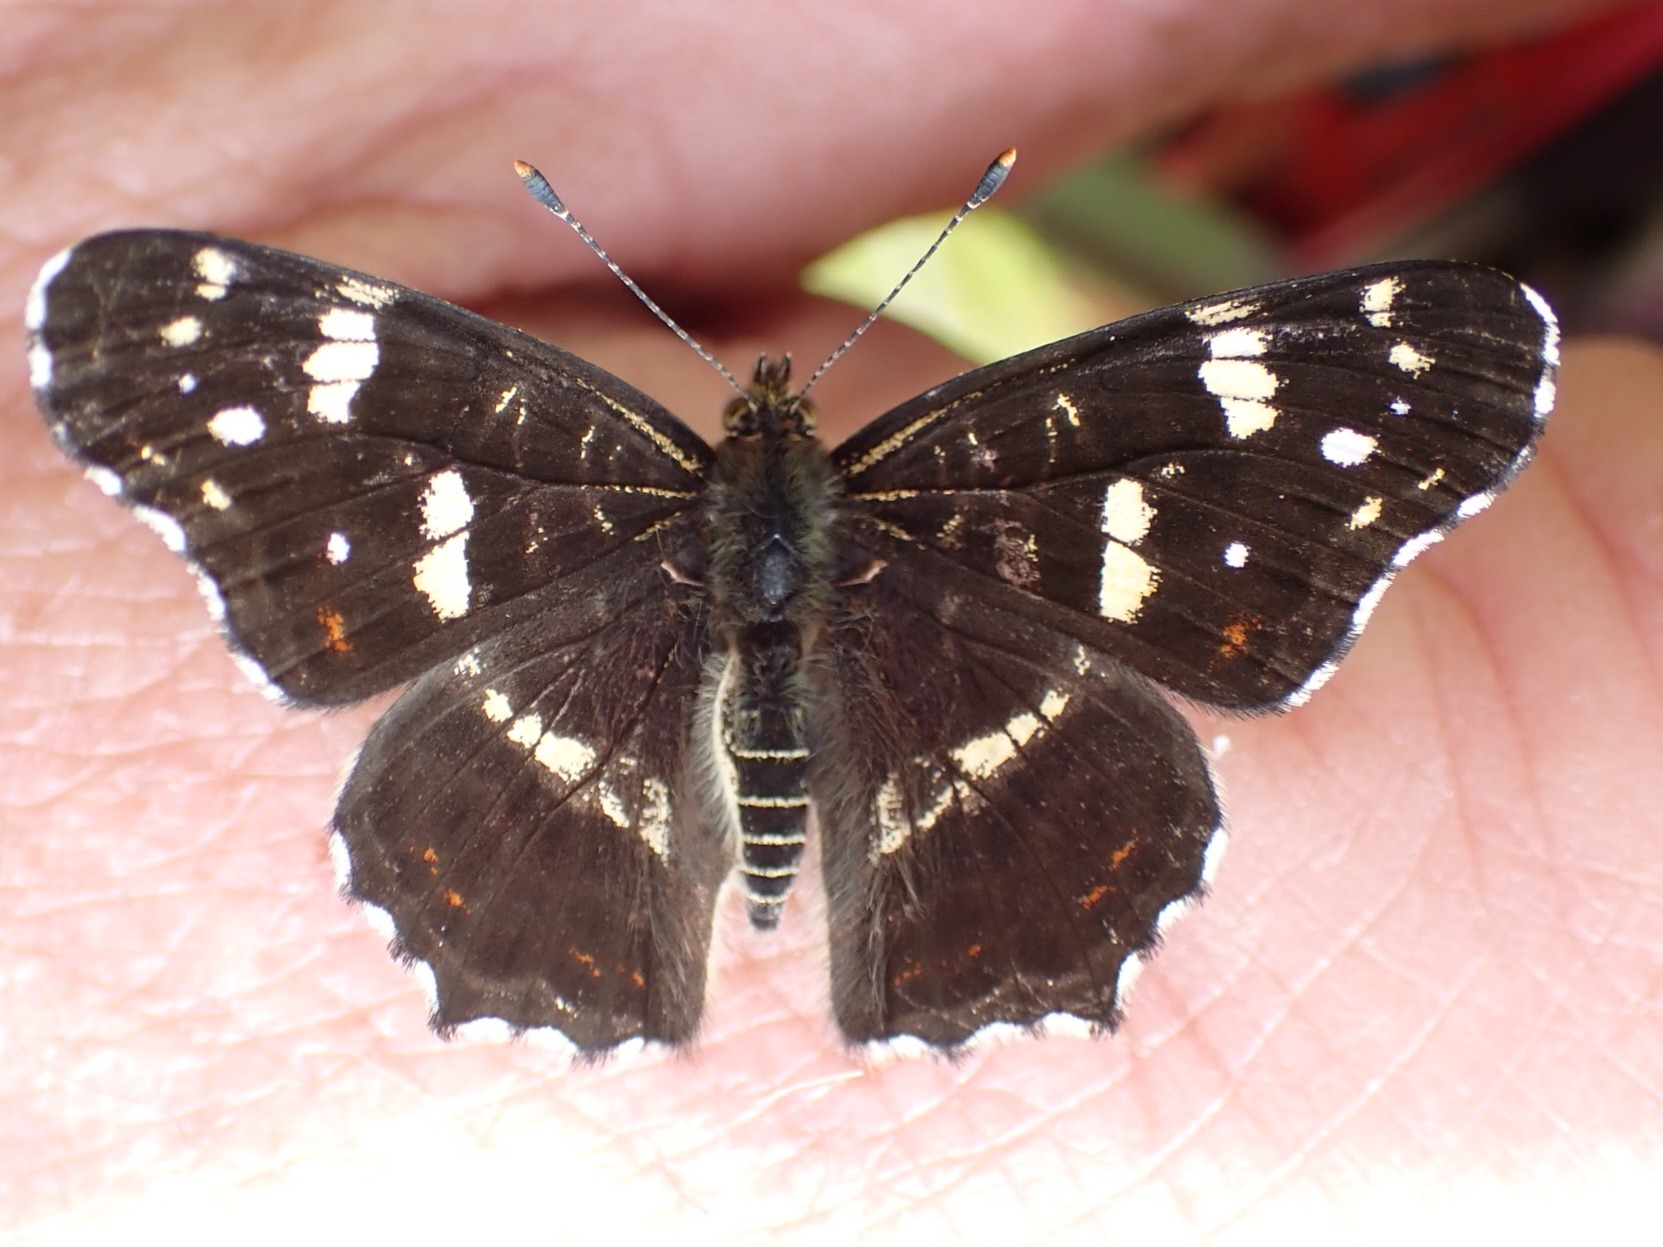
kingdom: Animalia
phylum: Arthropoda
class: Insecta
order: Lepidoptera
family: Nymphalidae
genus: Araschnia
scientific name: Araschnia levana
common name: Nældesommerfugl
